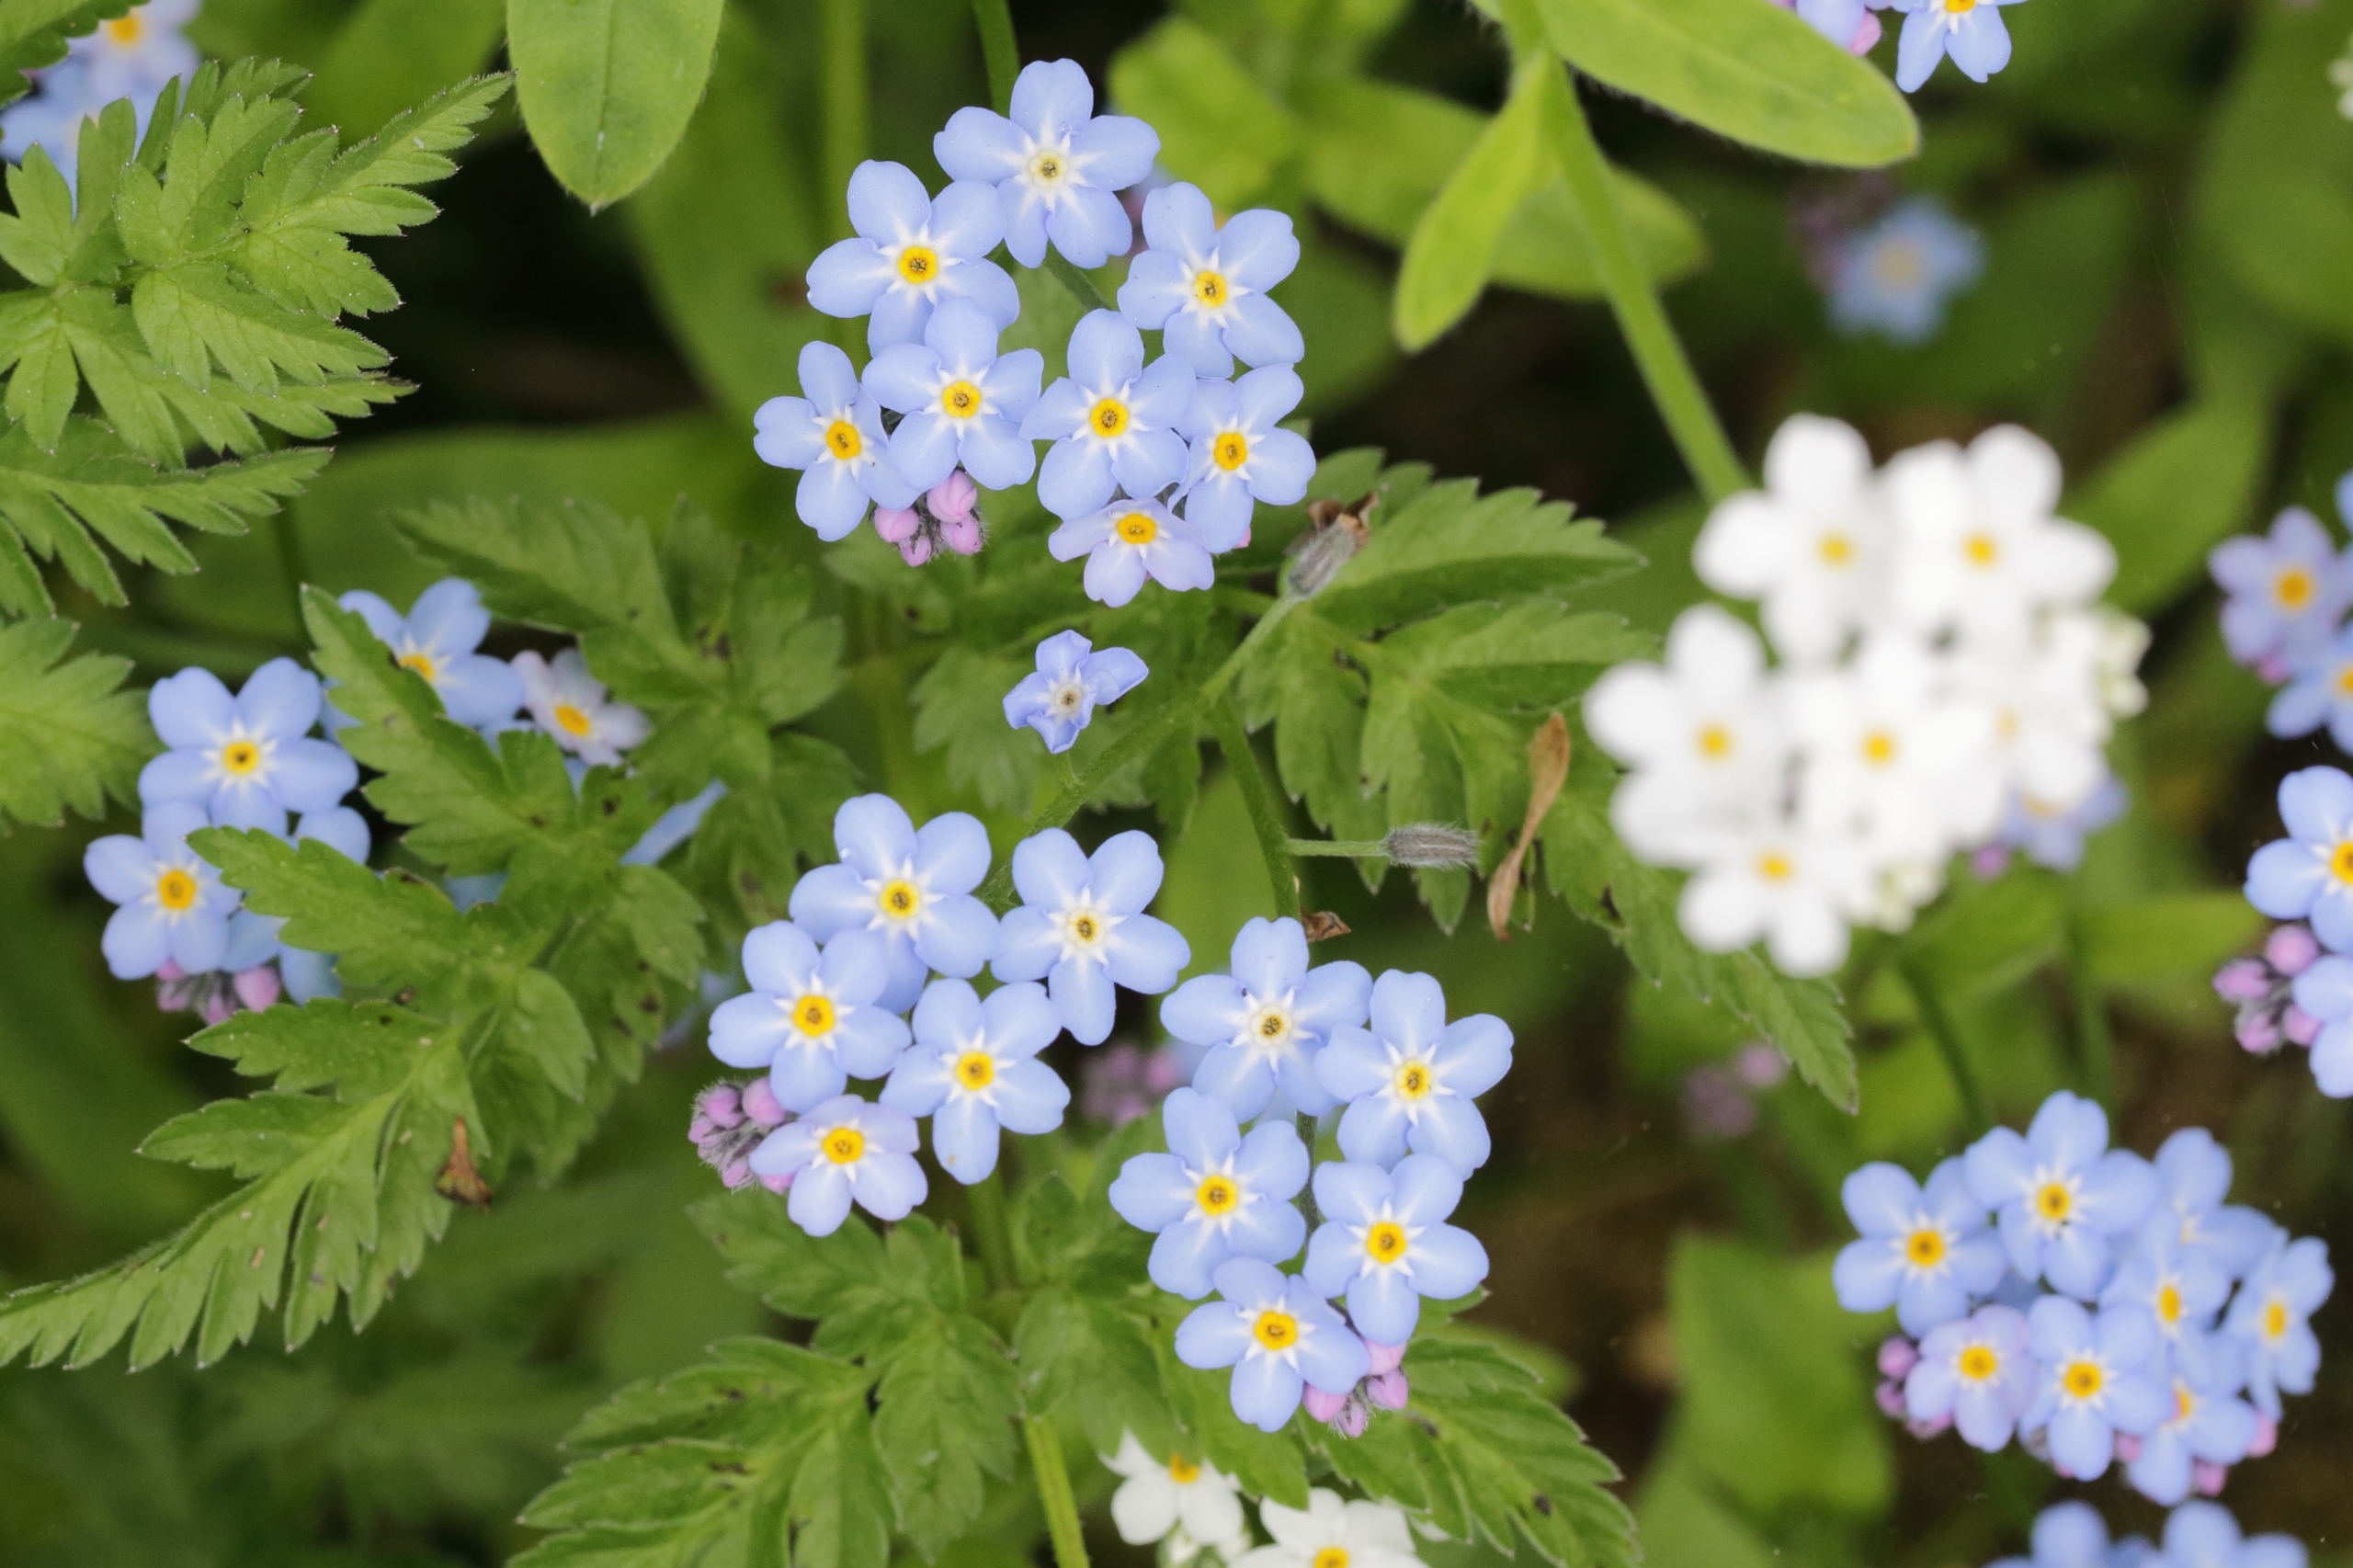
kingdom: Plantae
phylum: Tracheophyta
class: Magnoliopsida
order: Boraginales
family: Boraginaceae
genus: Myosotis
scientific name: Myosotis sylvatica
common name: Skov-forglemmigej
